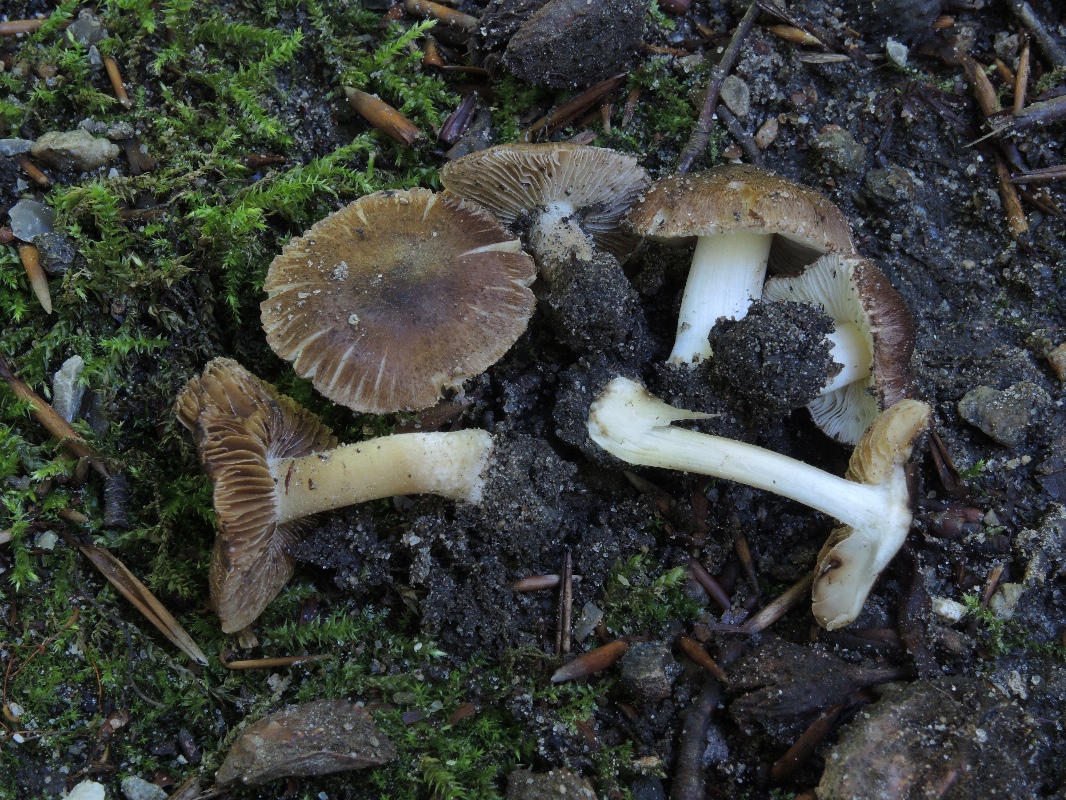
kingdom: Fungi
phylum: Basidiomycota
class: Agaricomycetes
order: Agaricales
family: Inocybaceae
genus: Inocybe
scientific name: Inocybe splendens
